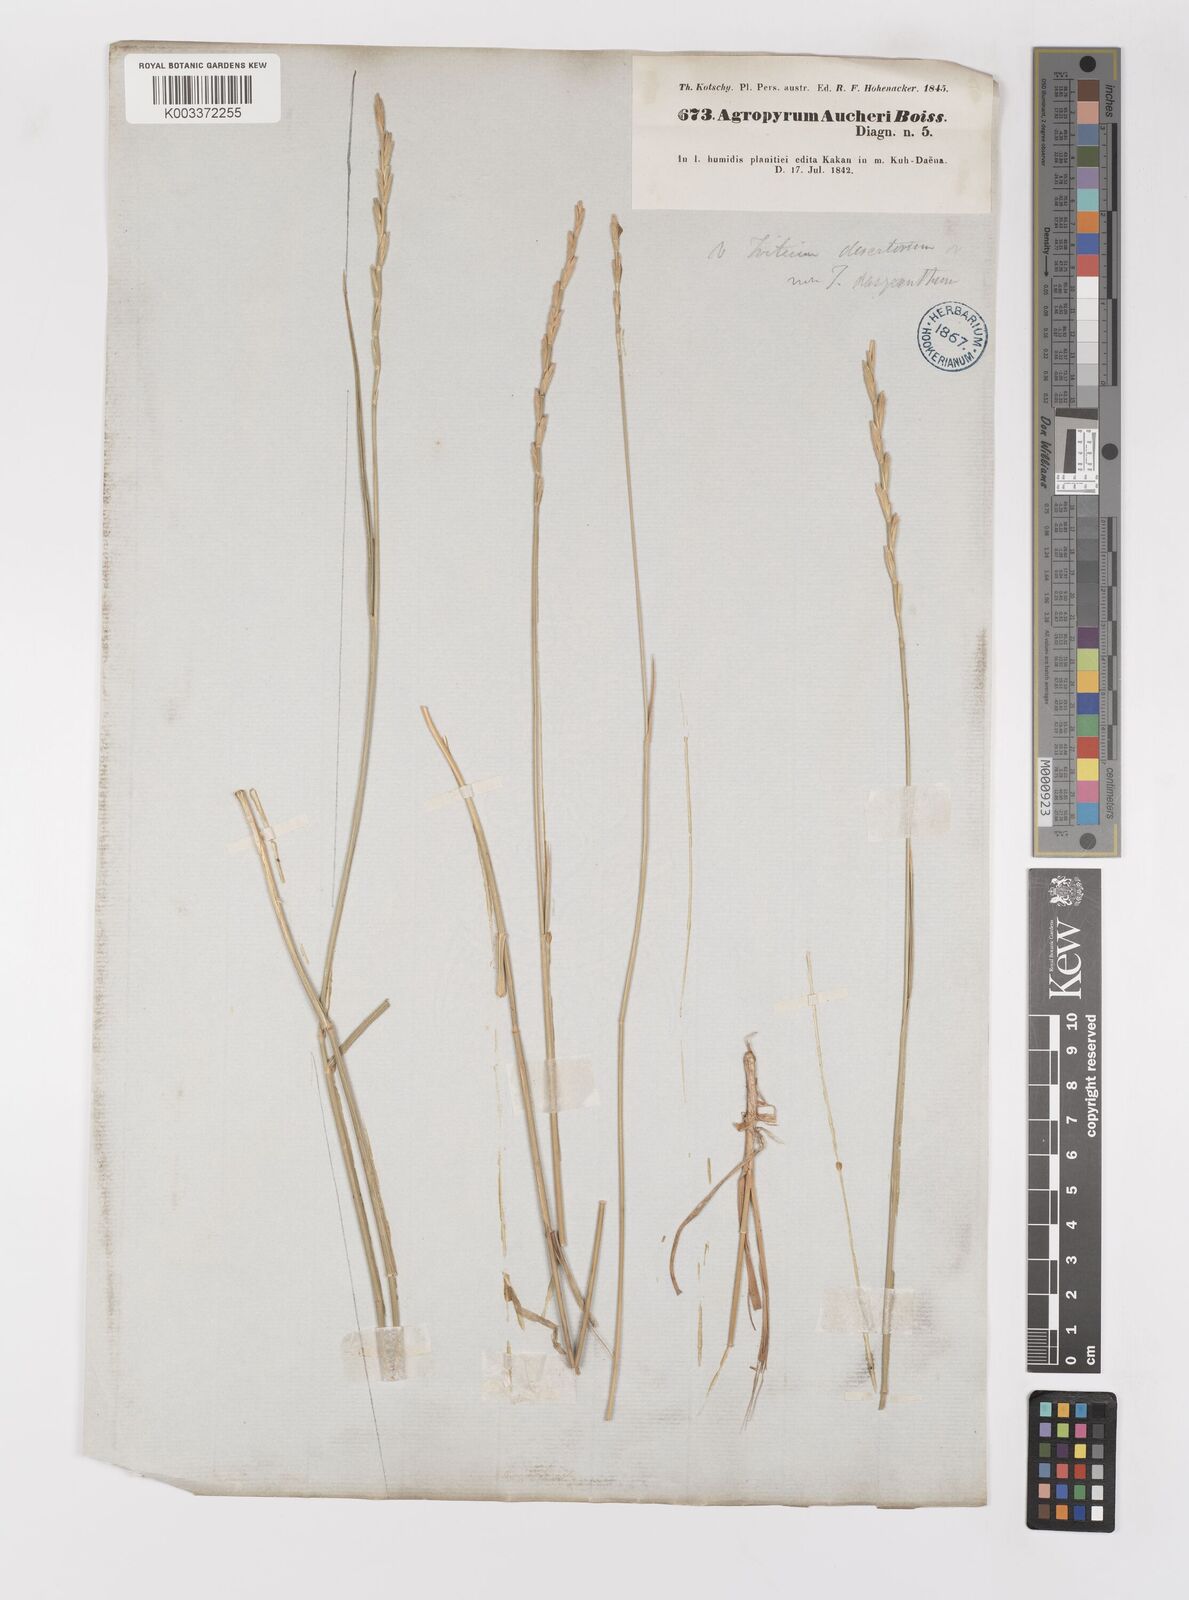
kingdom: Plantae
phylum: Tracheophyta
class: Liliopsida
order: Poales
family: Poaceae
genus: Thinopyrum
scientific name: Thinopyrum intermedium
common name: Intermediate wheatgrass
